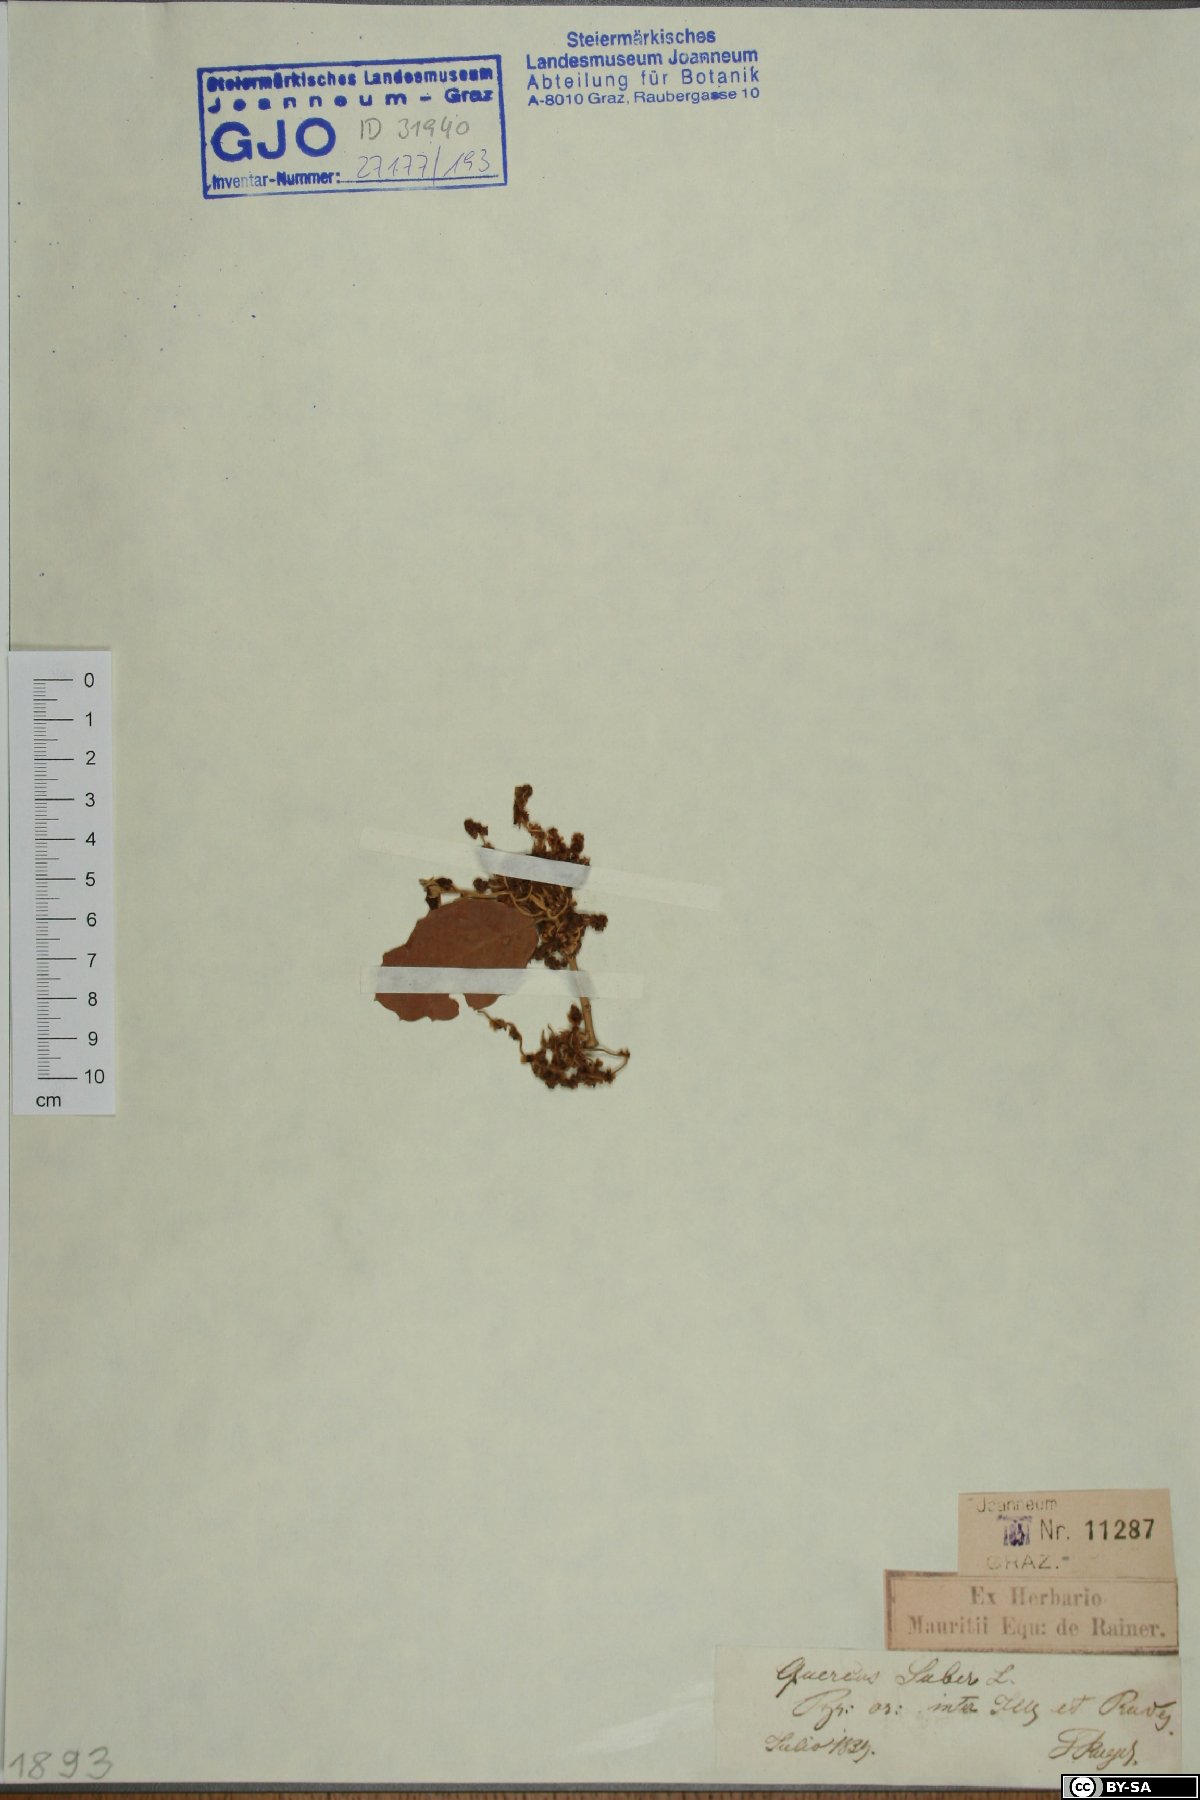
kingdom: Plantae
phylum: Tracheophyta
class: Magnoliopsida
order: Fagales
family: Fagaceae
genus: Quercus
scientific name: Quercus suber
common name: Cork oak
